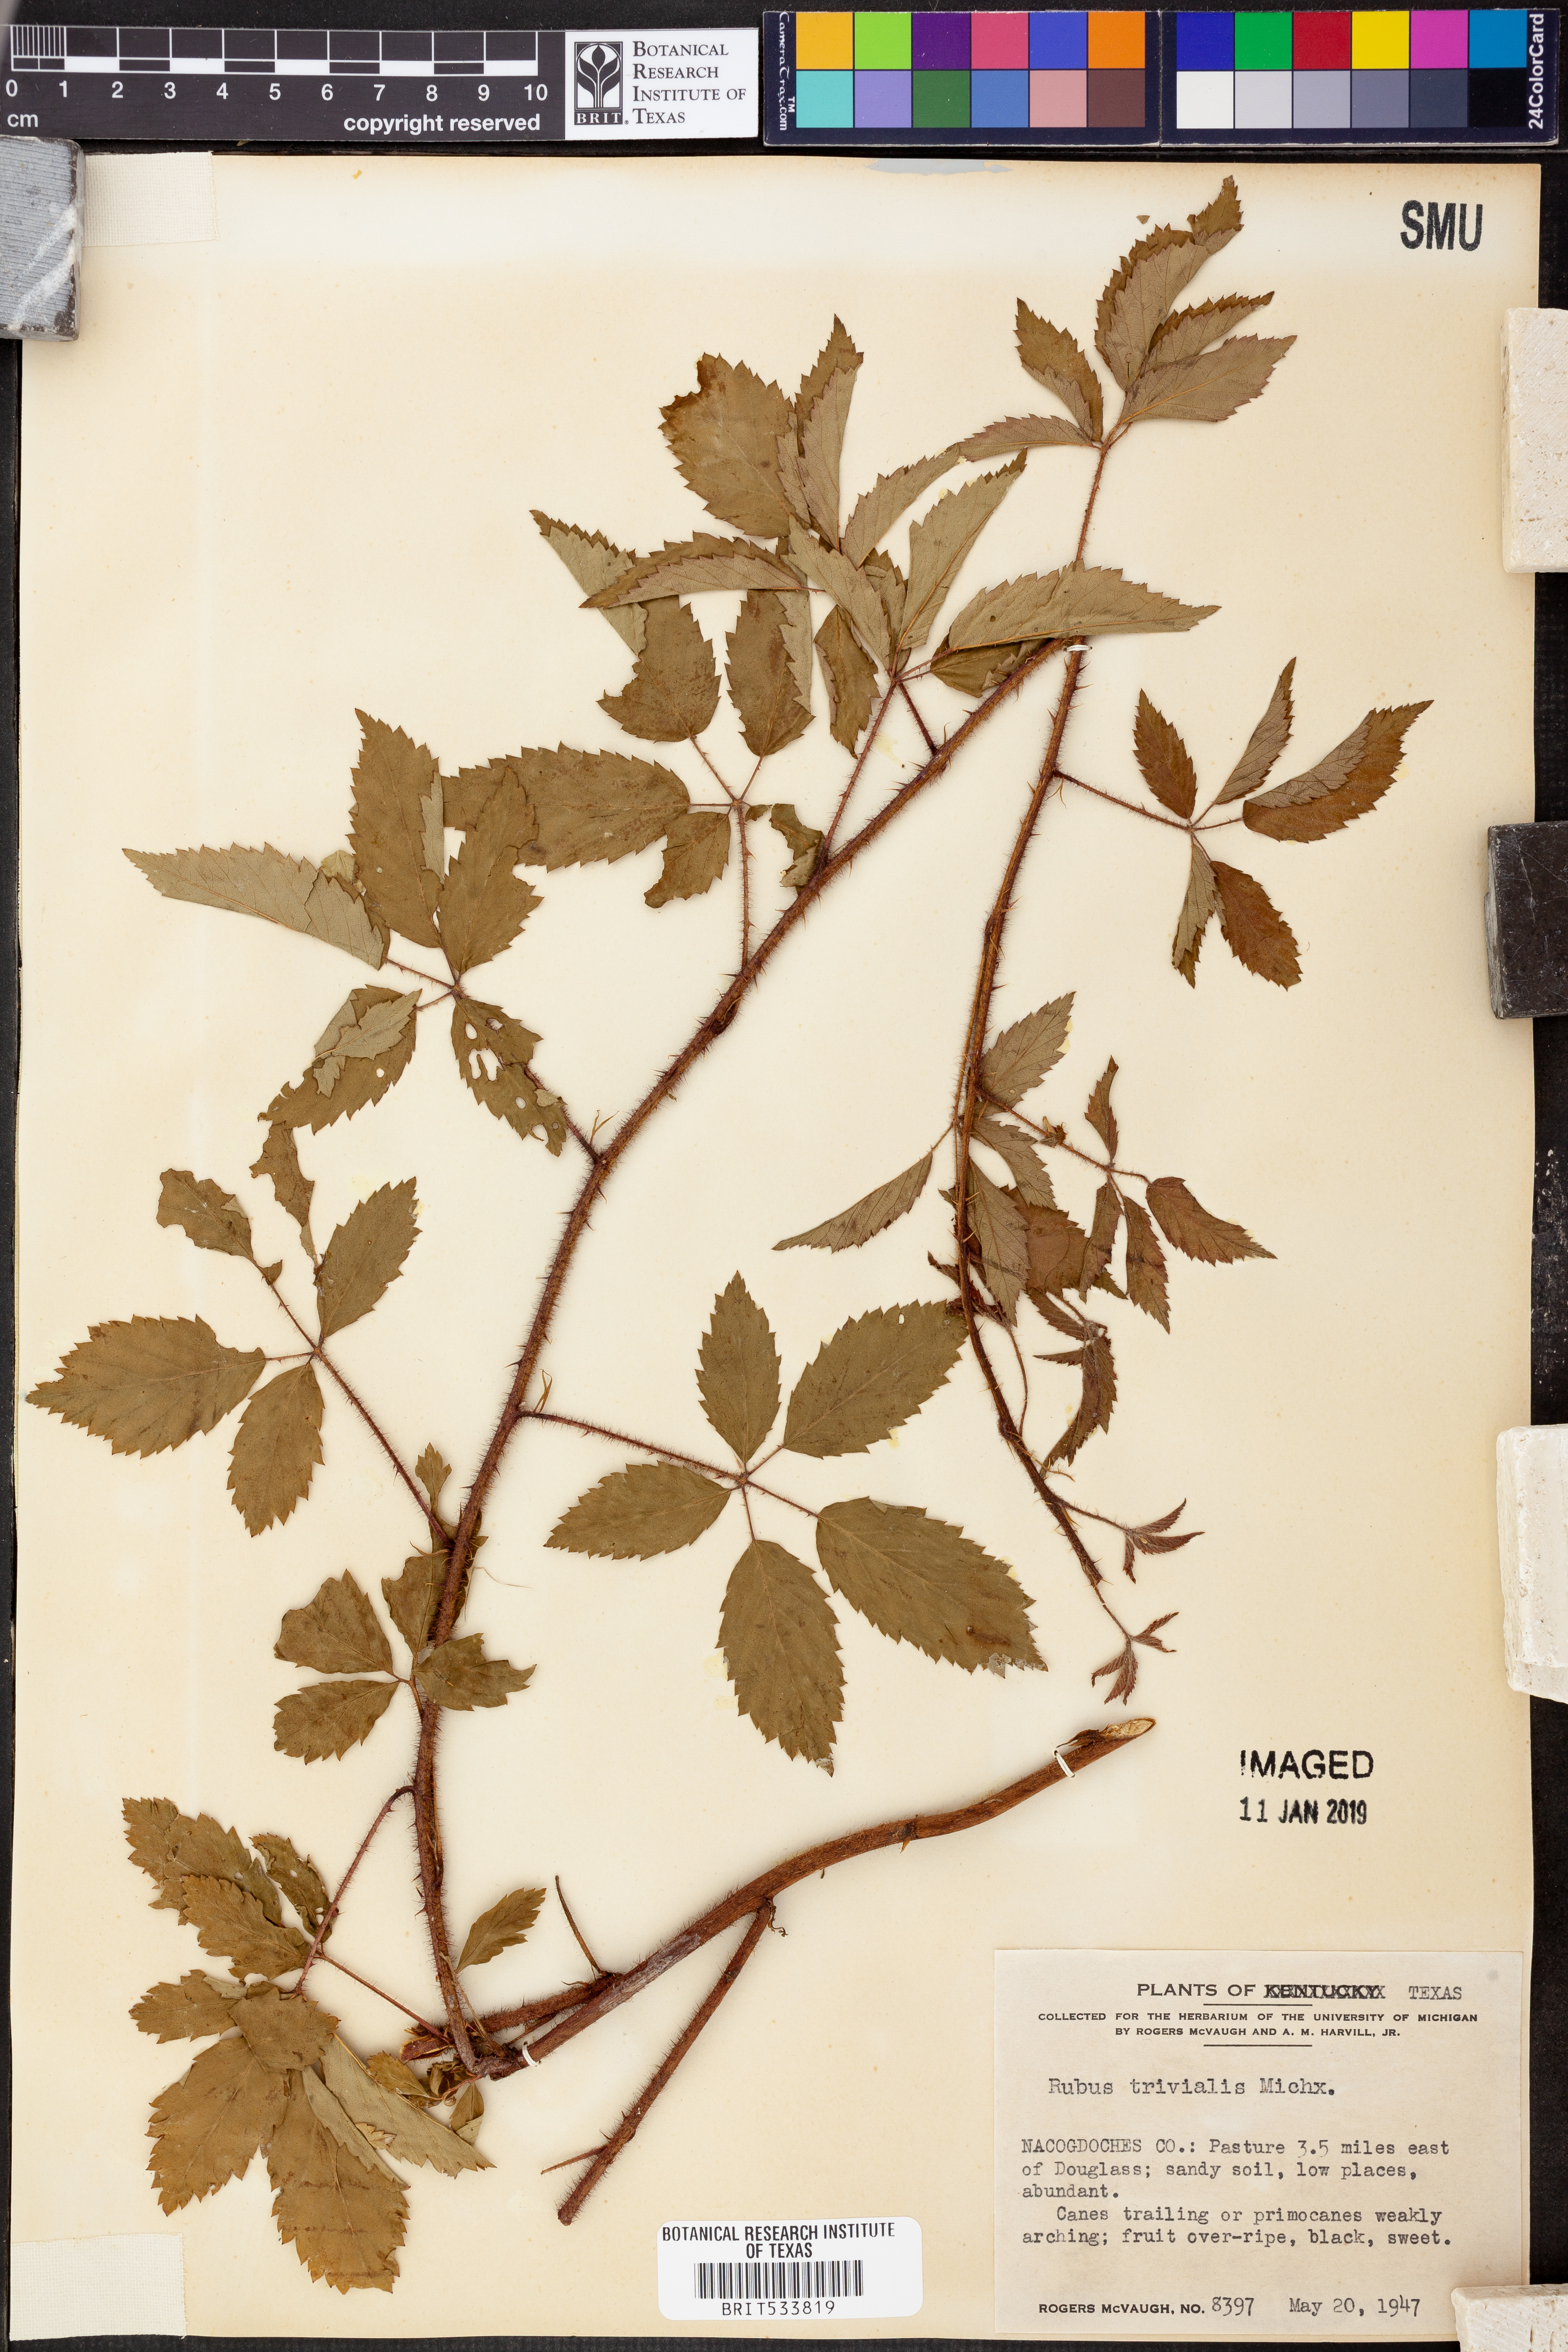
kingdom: Plantae
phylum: Tracheophyta
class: Magnoliopsida
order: Rosales
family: Rosaceae
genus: Rubus
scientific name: Rubus trivialis
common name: Southern dewberry
